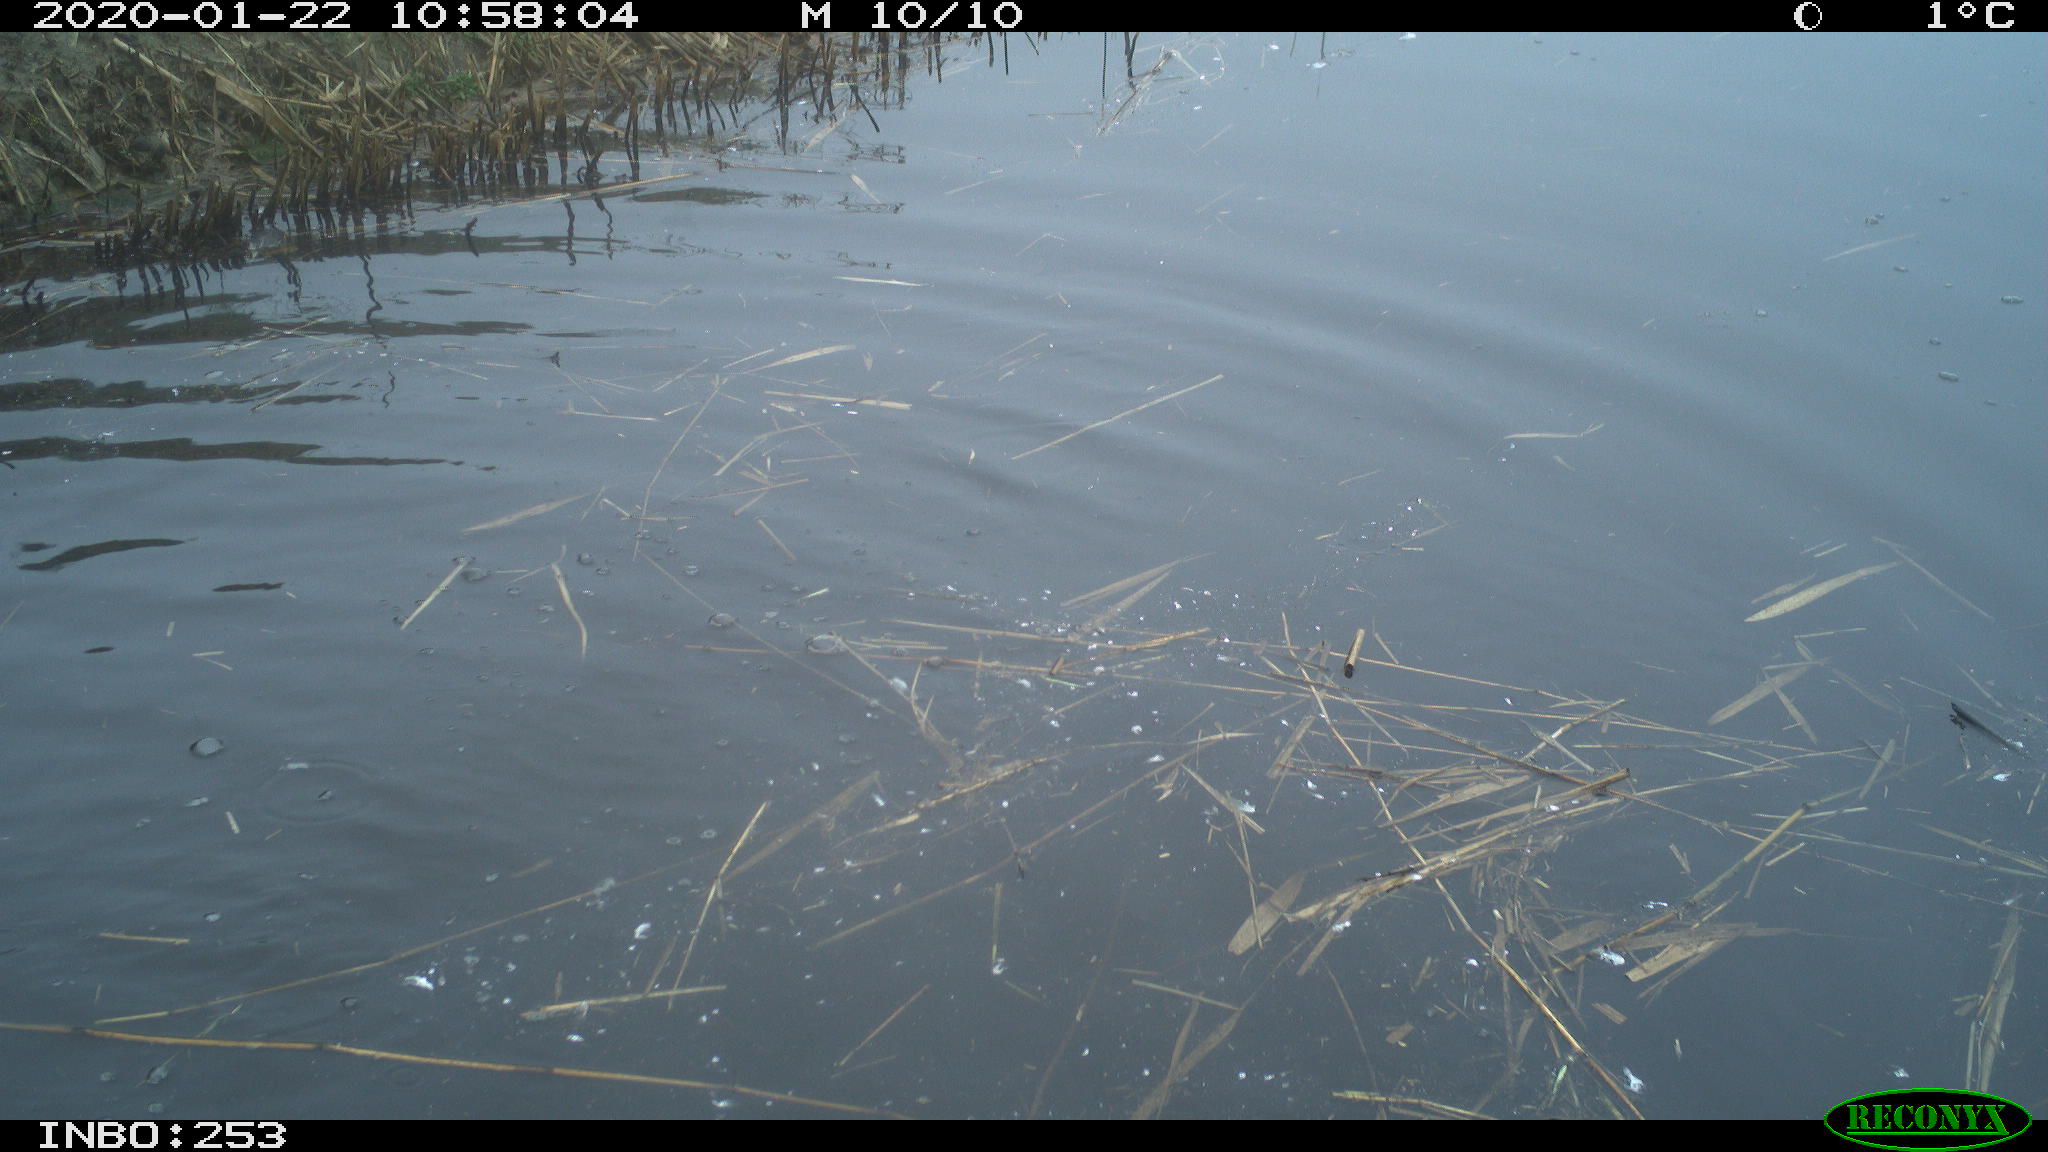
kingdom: Animalia
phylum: Chordata
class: Aves
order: Gruiformes
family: Rallidae
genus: Fulica
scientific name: Fulica atra
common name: Eurasian coot
